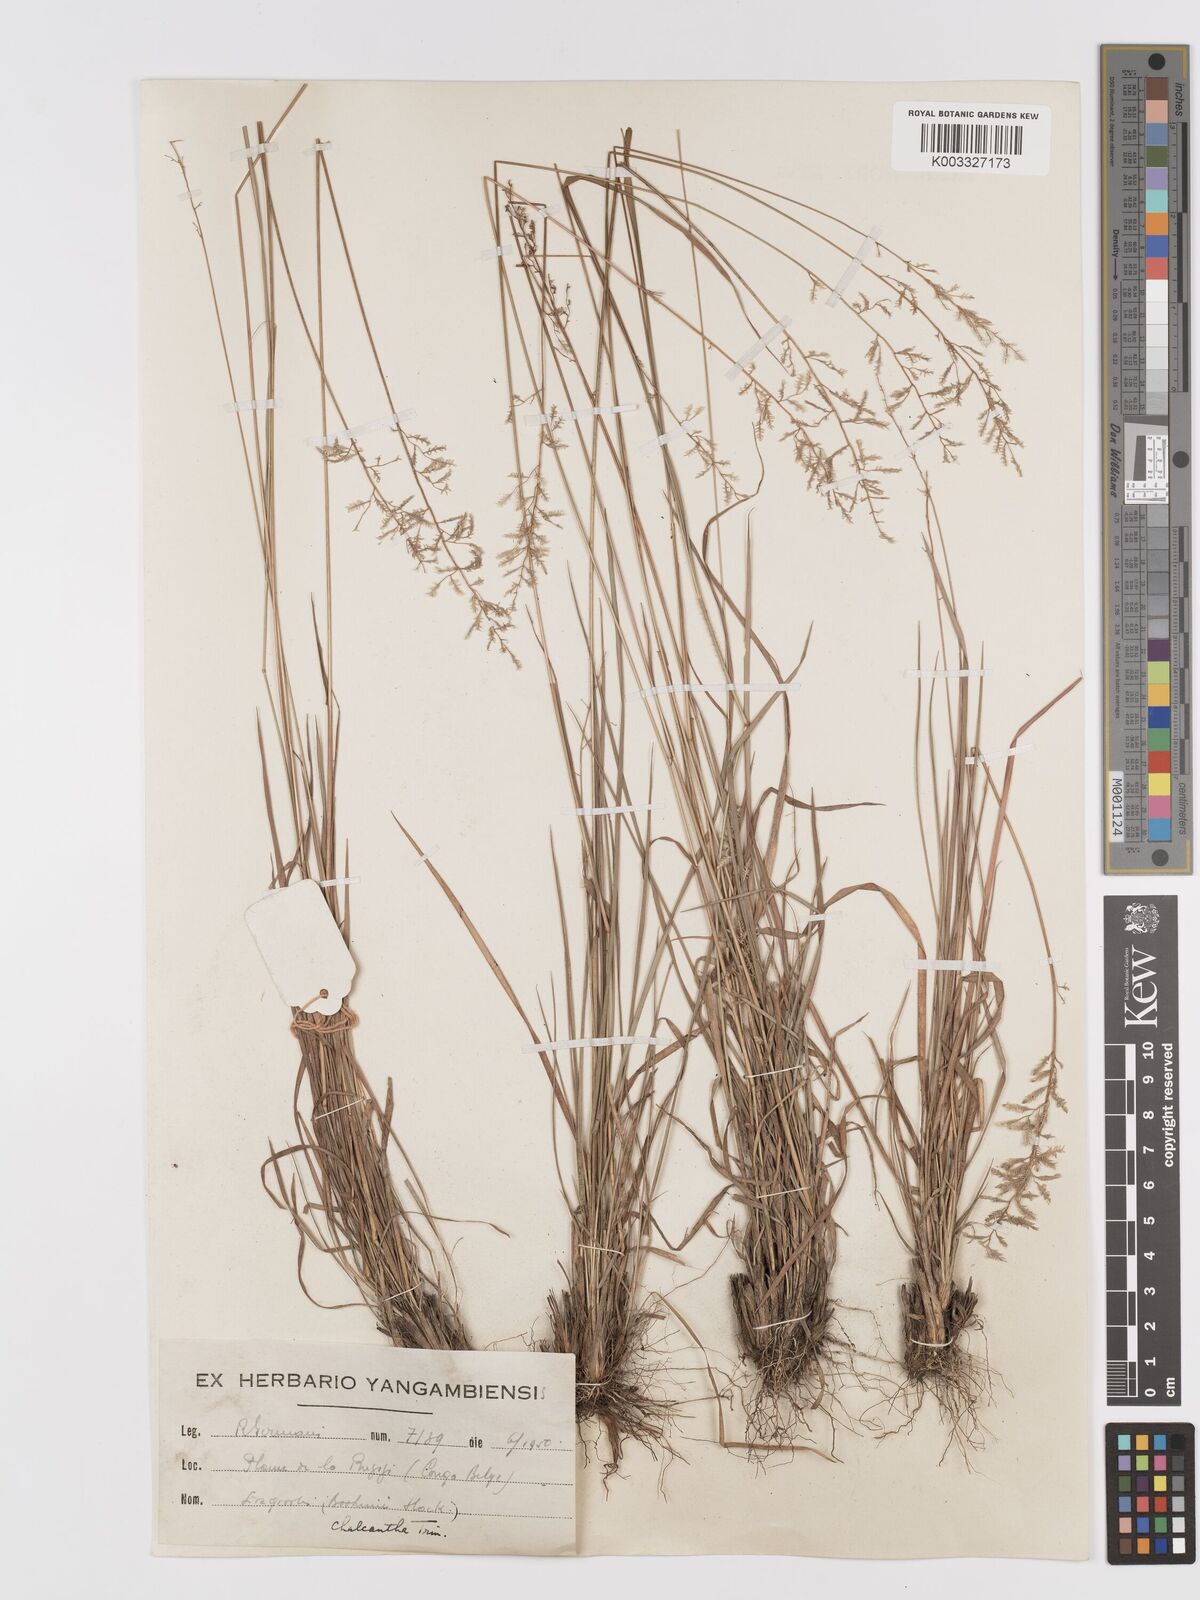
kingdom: Plantae
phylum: Tracheophyta
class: Liliopsida
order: Poales
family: Poaceae
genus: Eragrostis
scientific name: Eragrostis racemosa
